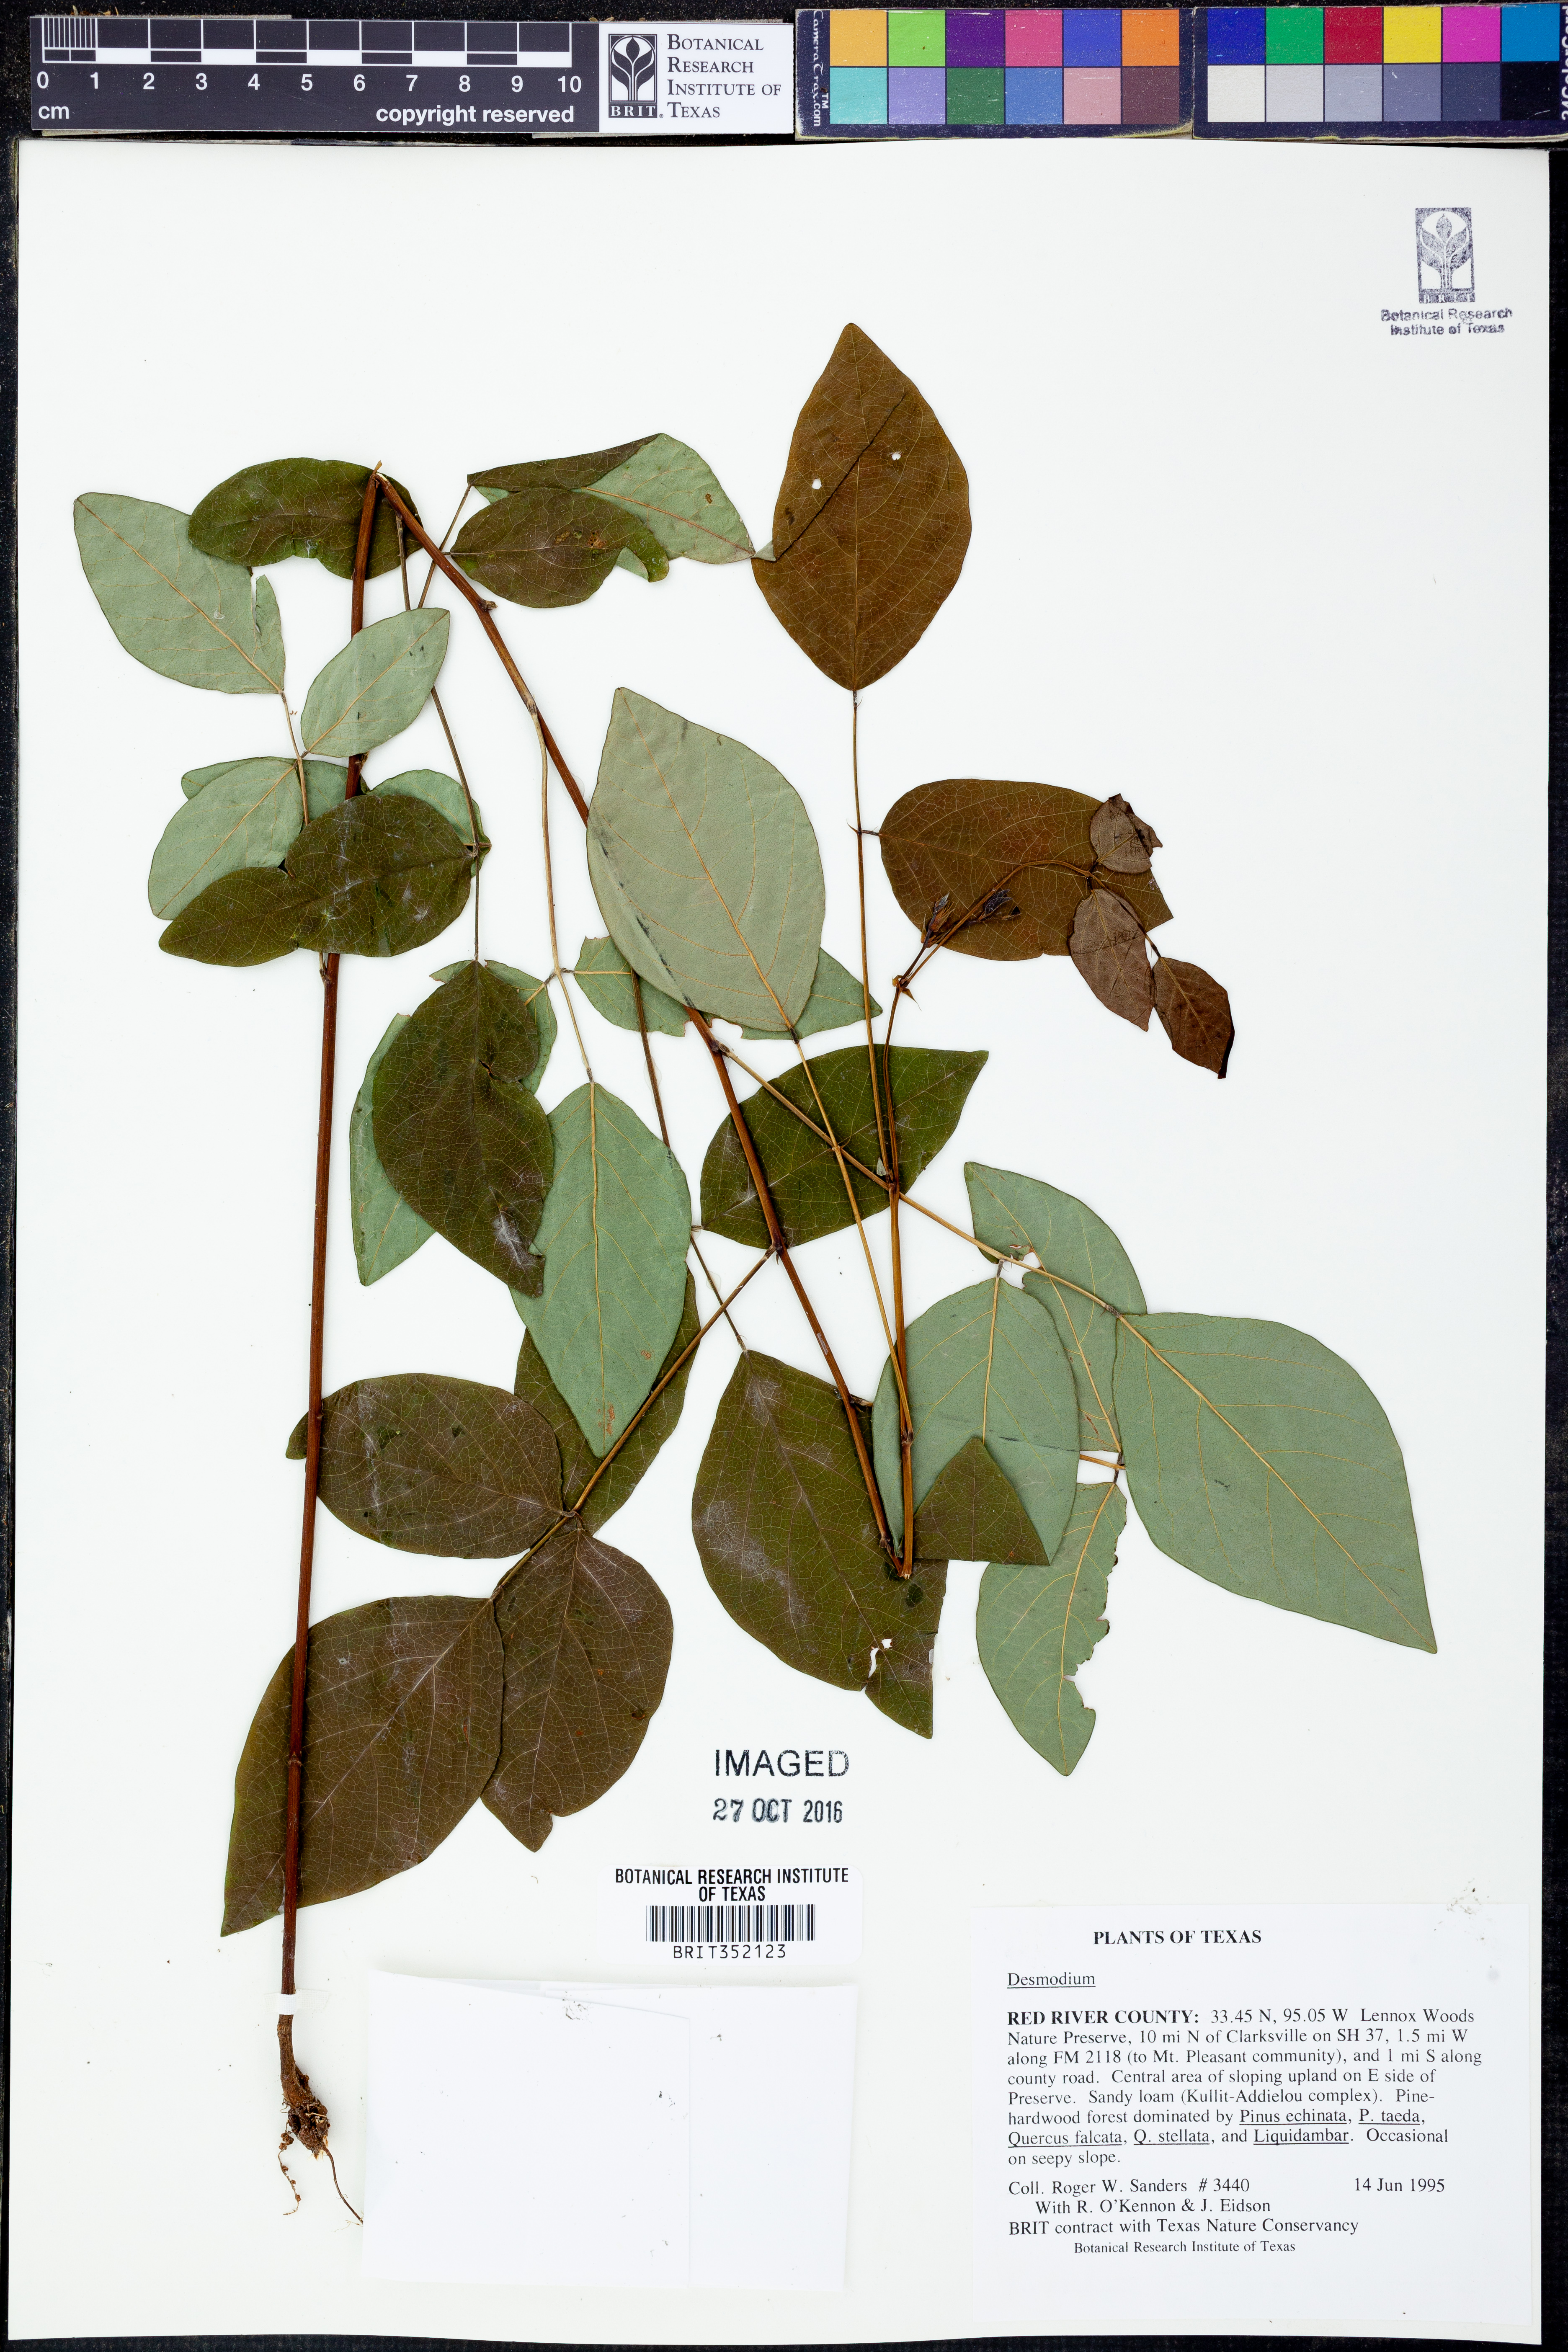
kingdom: Plantae
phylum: Tracheophyta
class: Magnoliopsida
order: Fabales
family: Fabaceae
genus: Desmodium
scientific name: Desmodium
